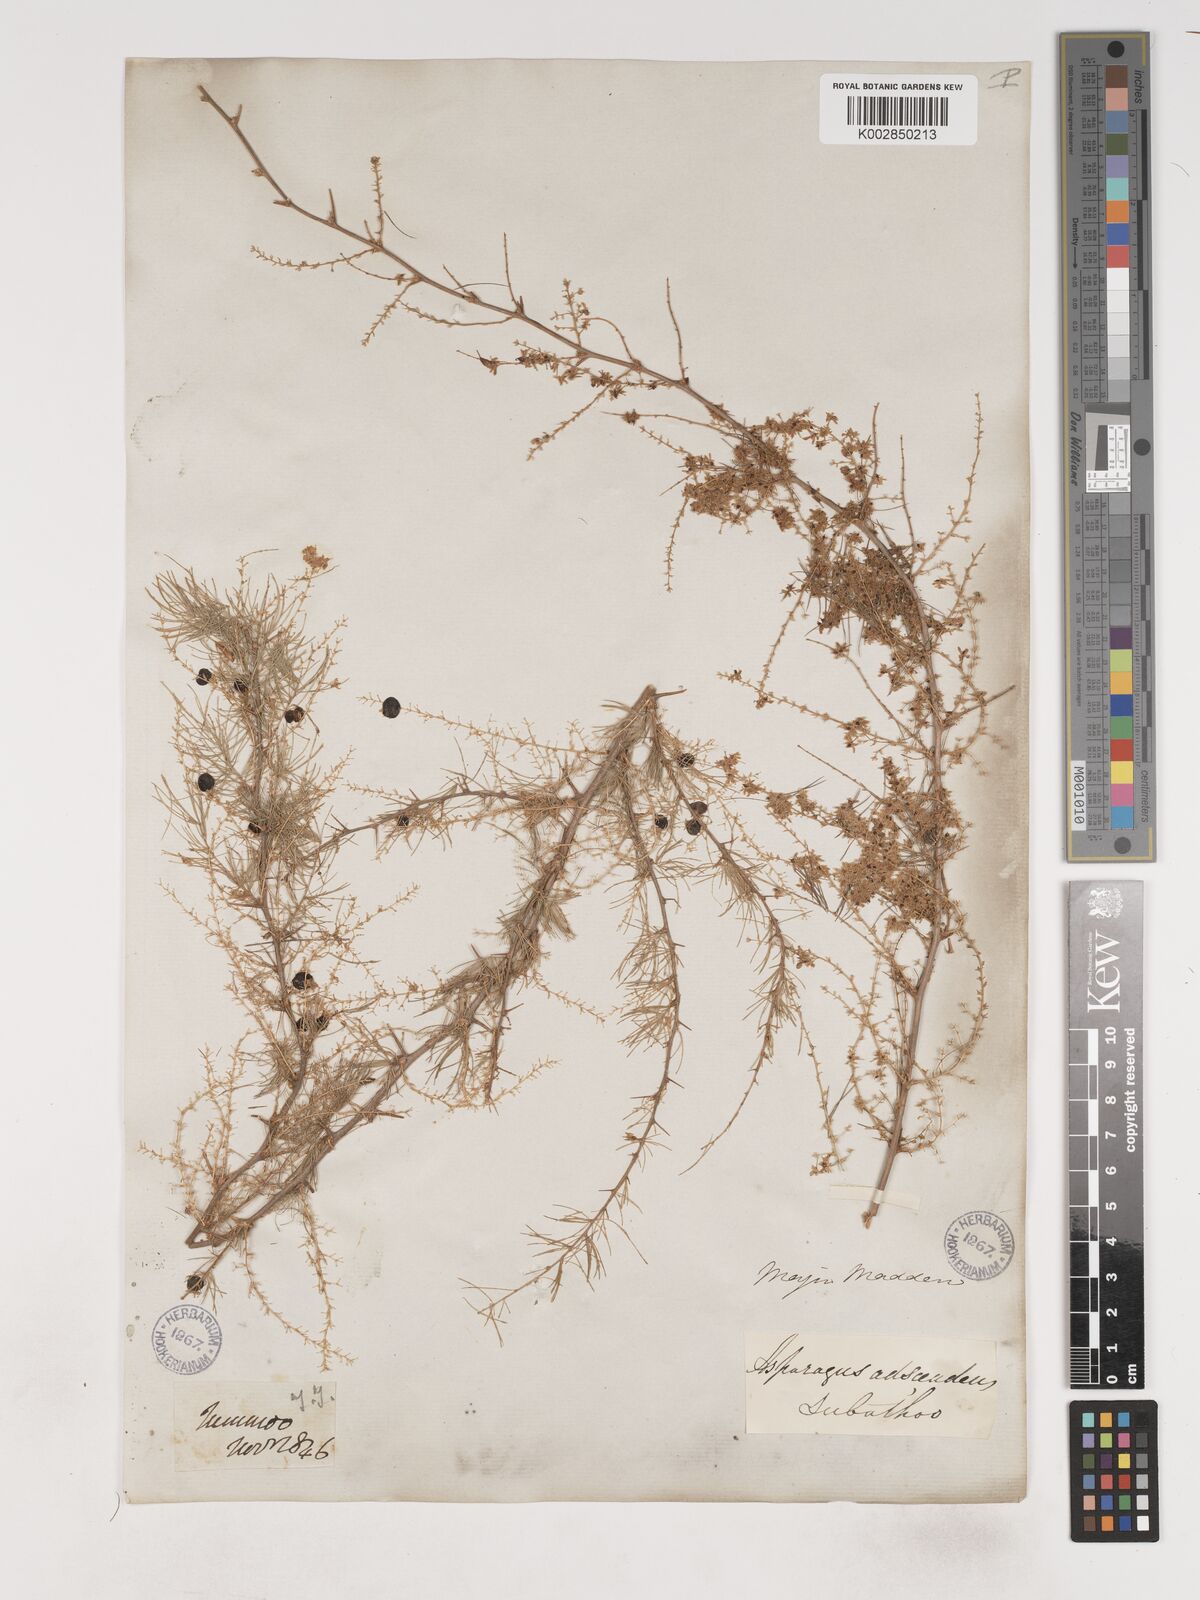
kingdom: Plantae
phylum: Tracheophyta
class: Liliopsida
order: Asparagales
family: Asparagaceae
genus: Asparagus
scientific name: Asparagus adscendens
